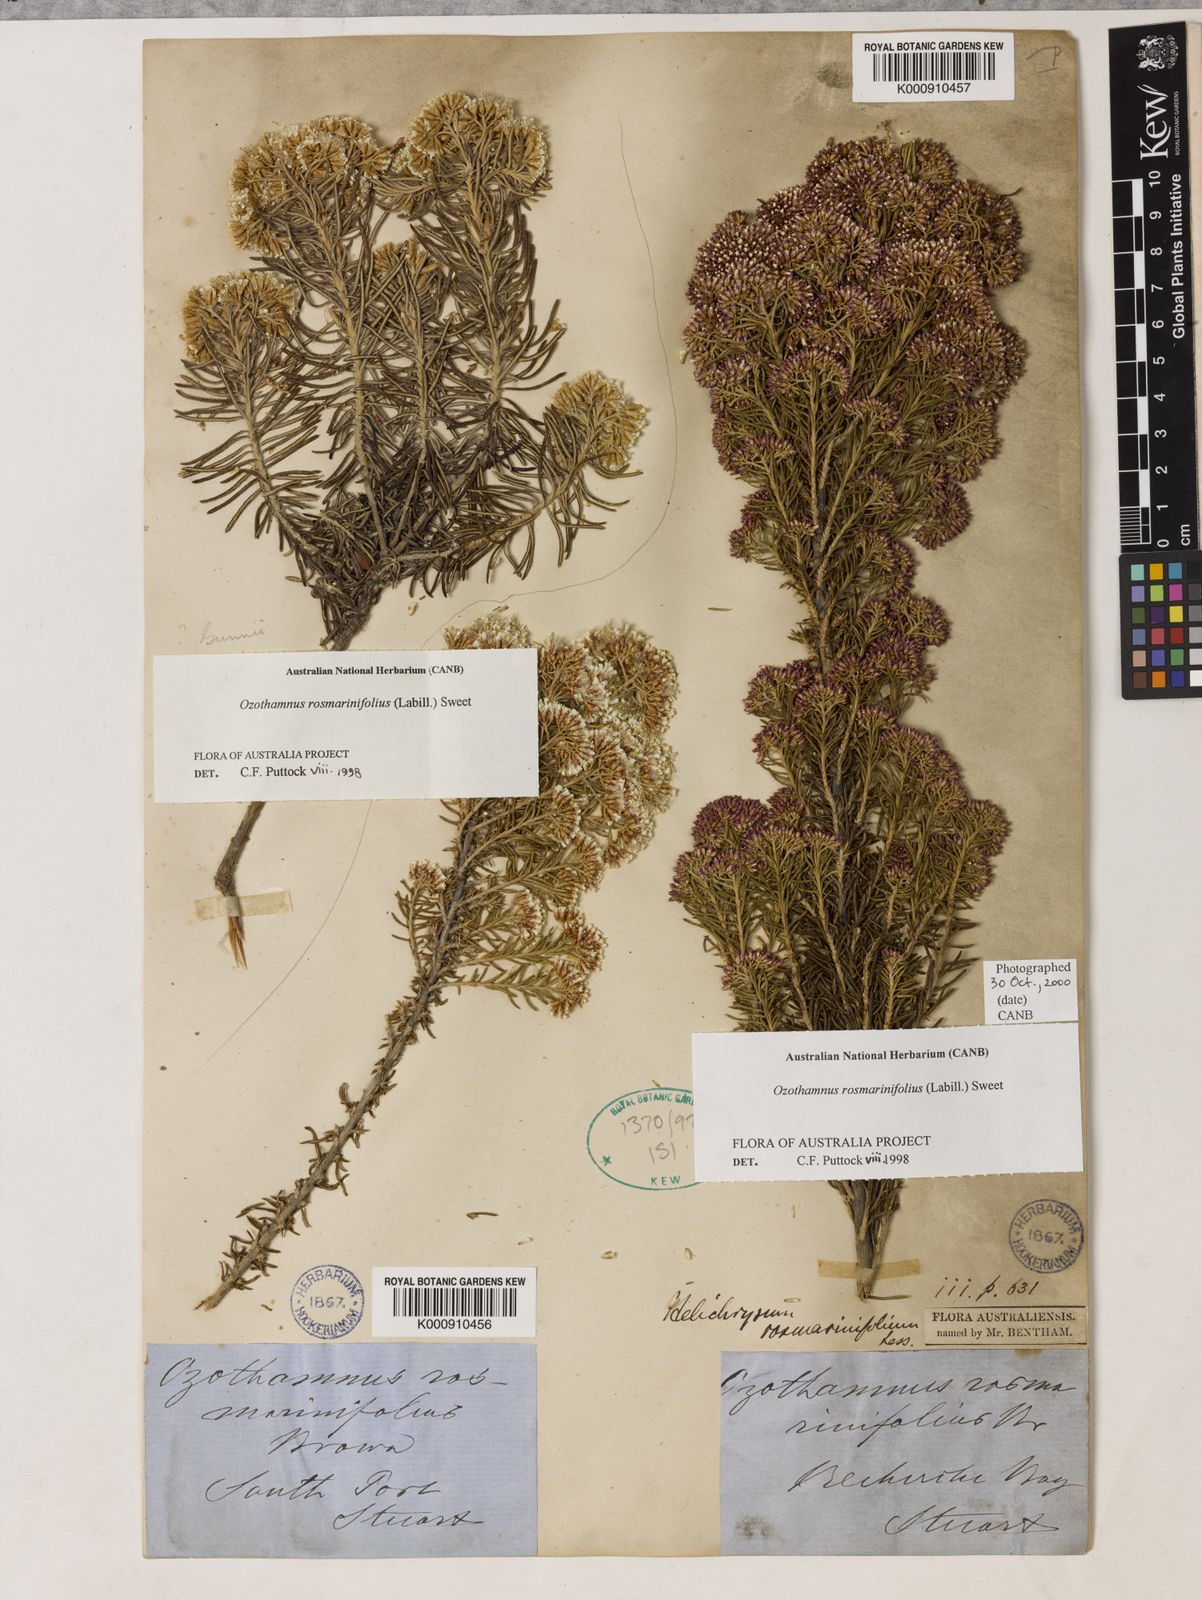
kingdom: Plantae
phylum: Tracheophyta
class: Magnoliopsida
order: Asterales
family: Asteraceae
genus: Ozothamnus
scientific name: Ozothamnus rosmarinifolius
